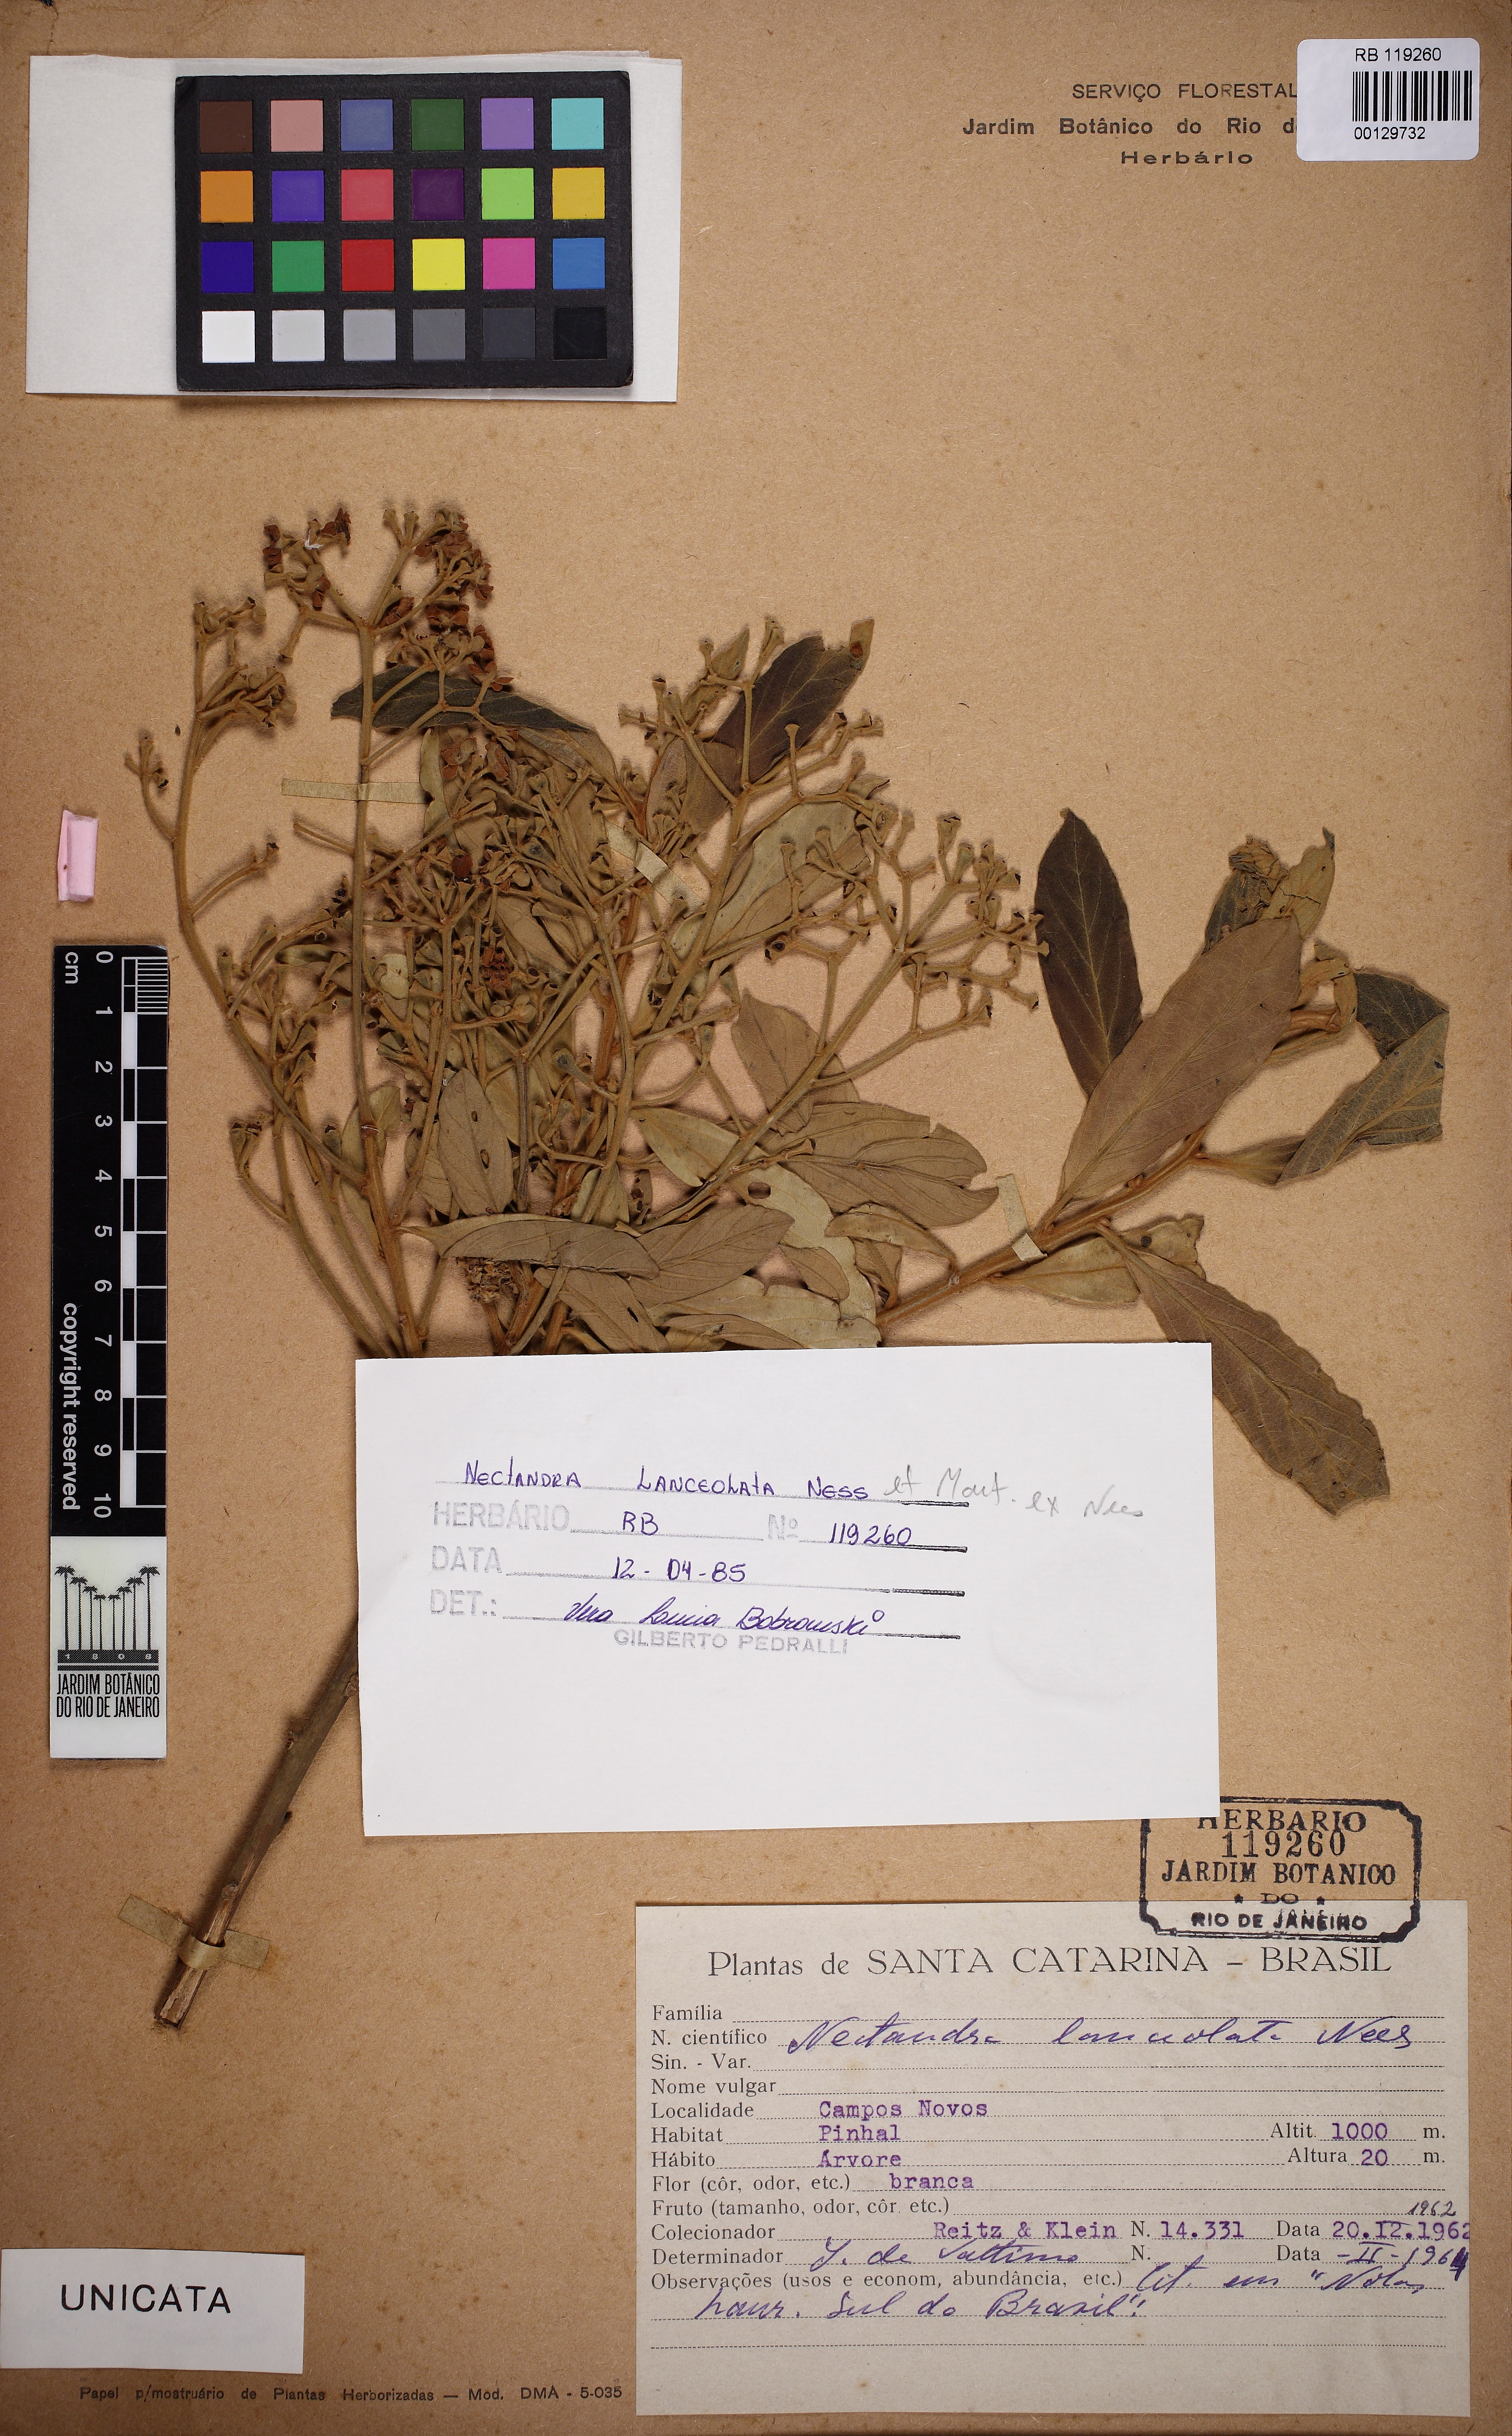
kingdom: Plantae
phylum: Tracheophyta
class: Magnoliopsida
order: Laurales
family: Lauraceae
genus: Nectandra
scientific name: Nectandra lanceolata
